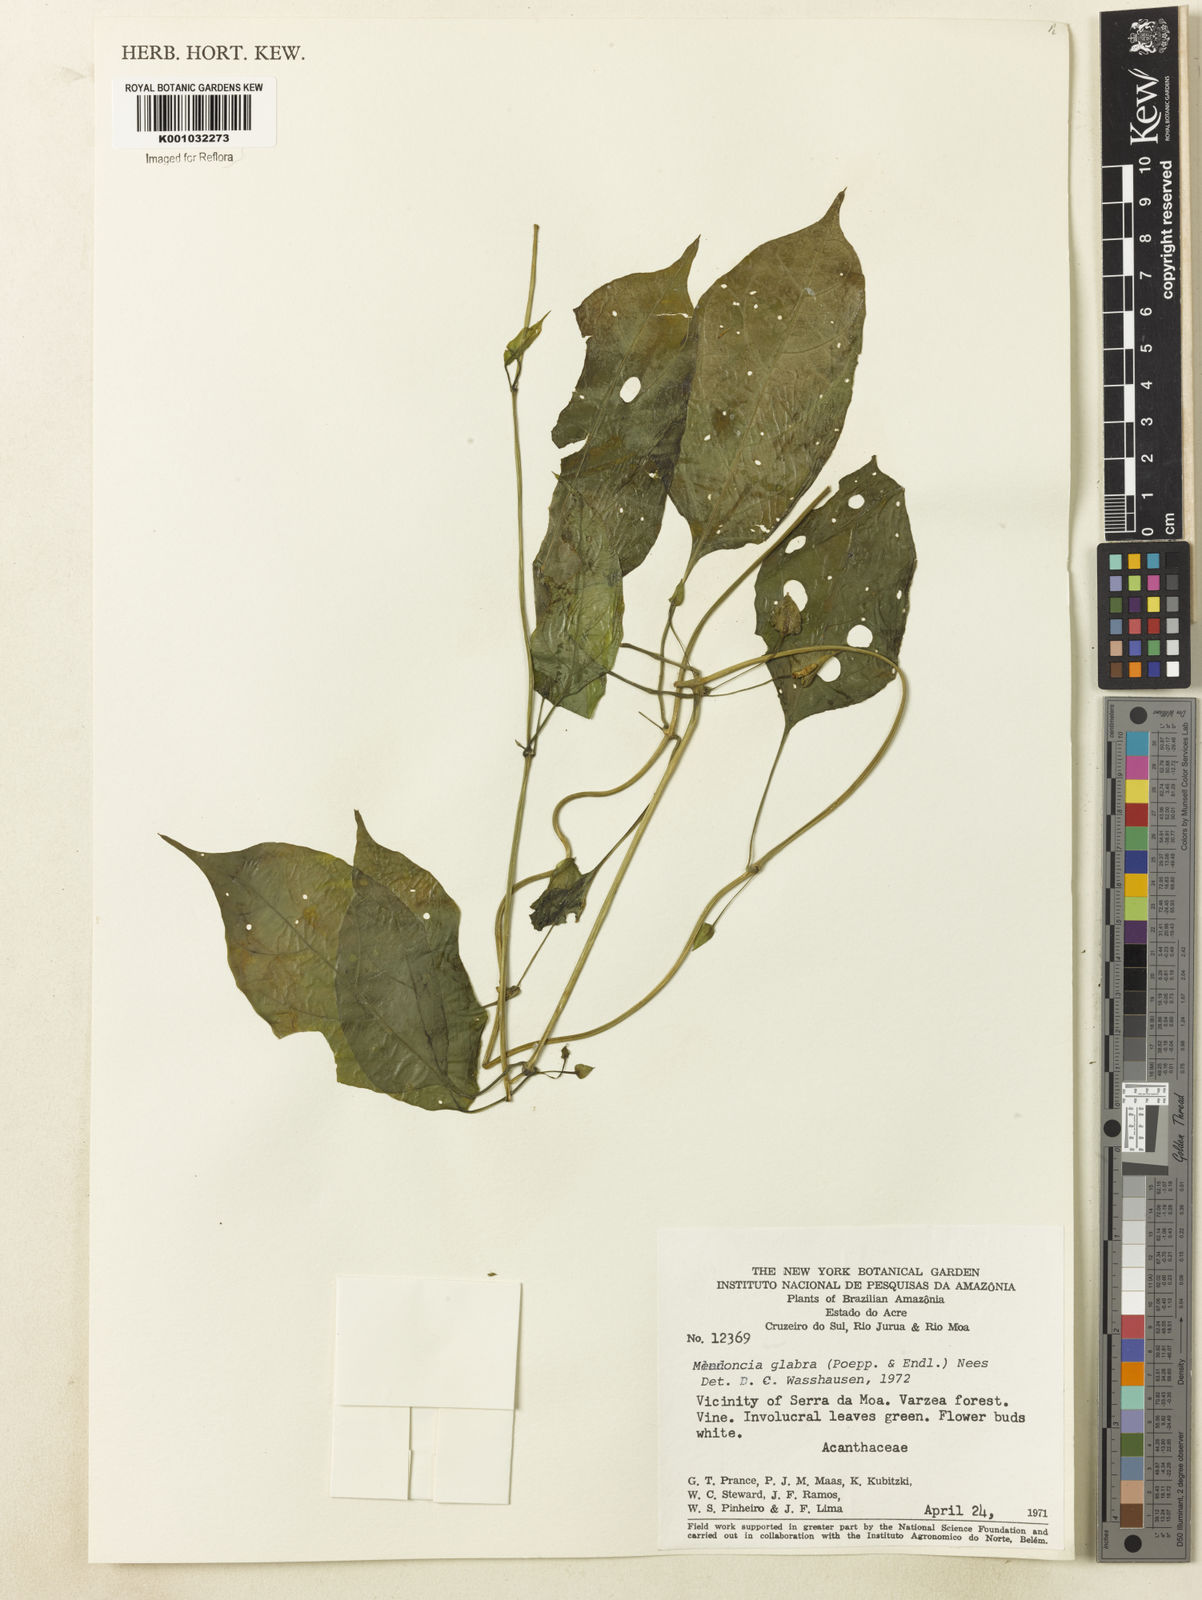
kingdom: Plantae
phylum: Tracheophyta
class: Magnoliopsida
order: Lamiales
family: Acanthaceae
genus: Mendoncia
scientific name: Mendoncia
